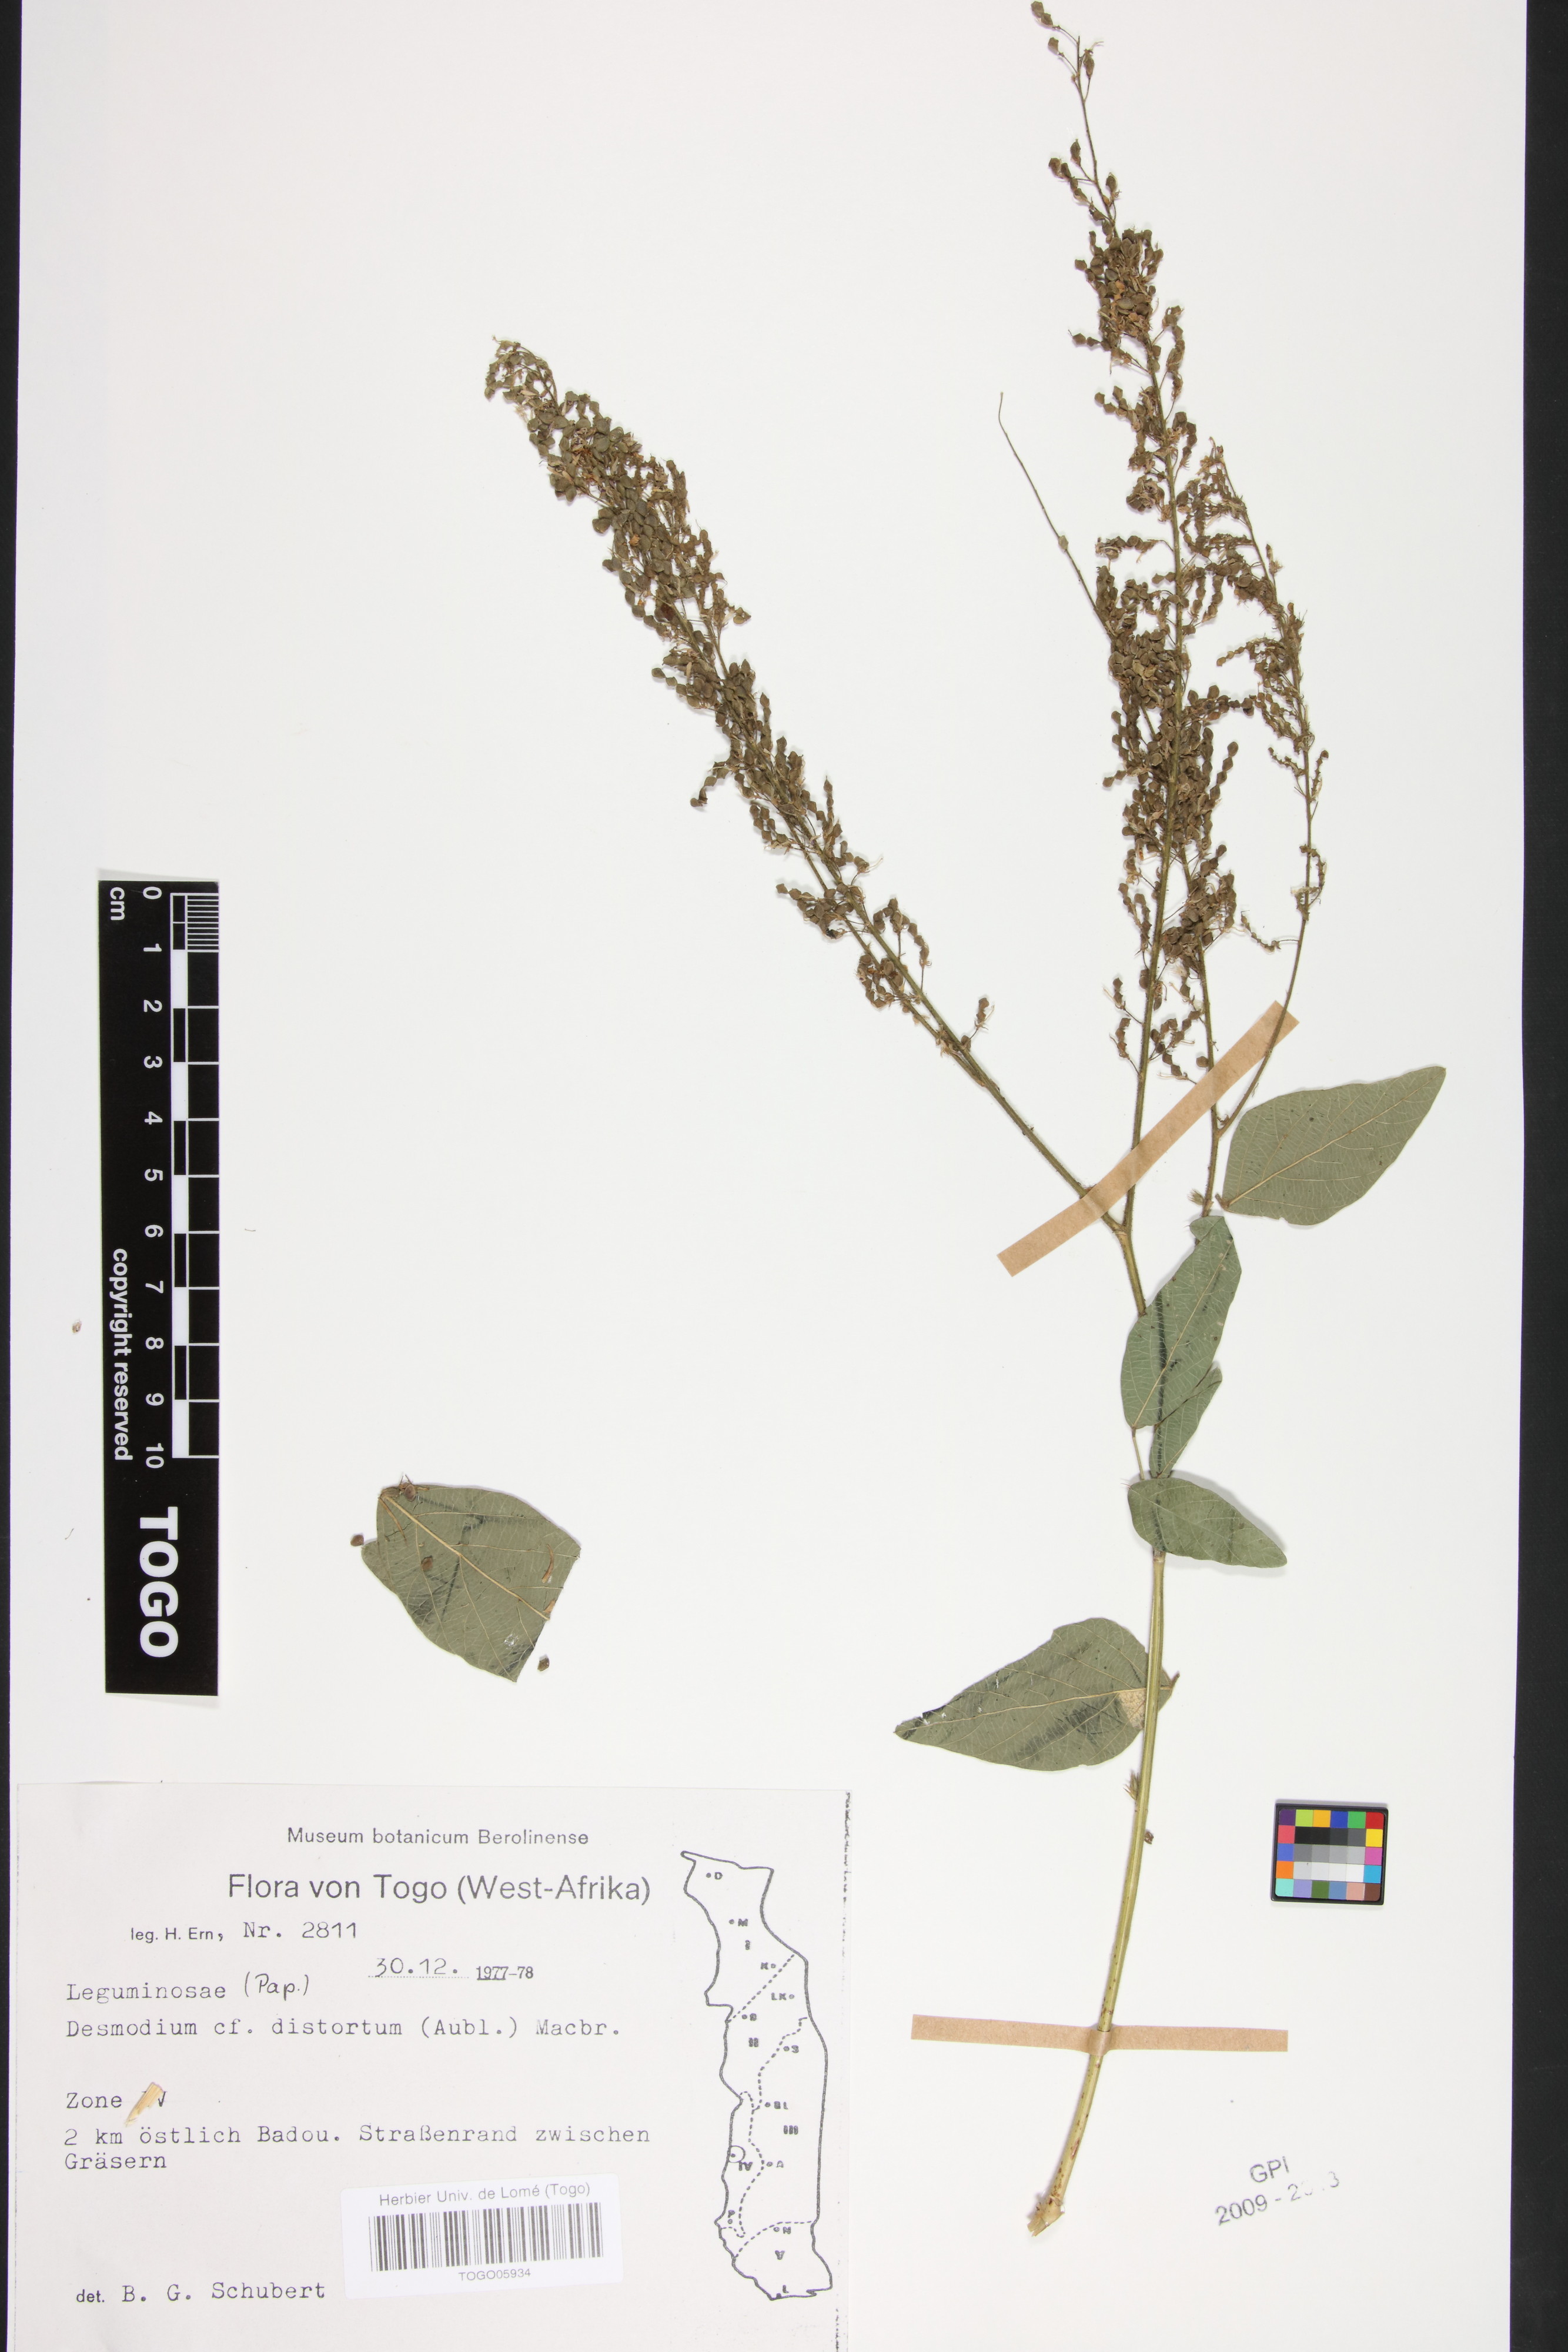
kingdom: Plantae
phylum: Tracheophyta
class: Magnoliopsida
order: Fabales
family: Fabaceae
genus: Desmodium
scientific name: Desmodium incanum
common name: Tickclover
